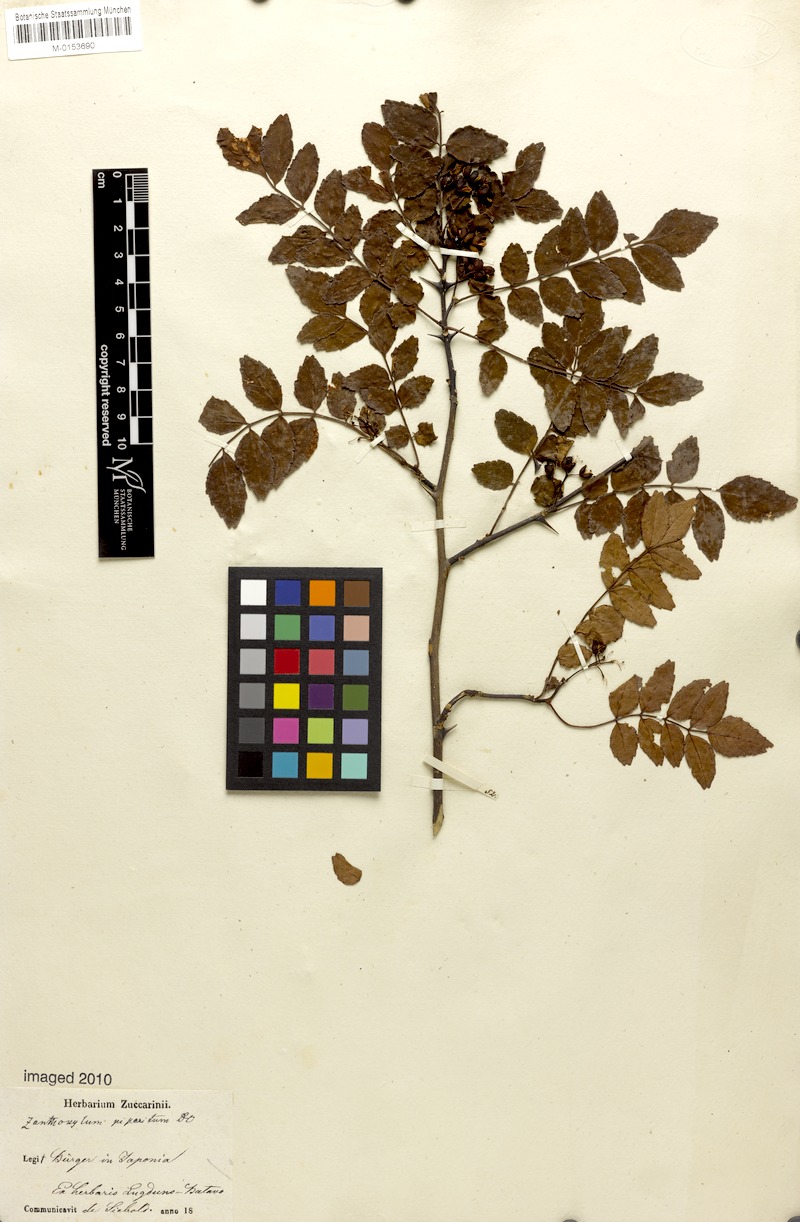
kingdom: Plantae
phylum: Tracheophyta
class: Magnoliopsida
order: Sapindales
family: Rutaceae
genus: Zanthoxylum
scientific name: Zanthoxylum piperitum
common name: Japanese-pepper
